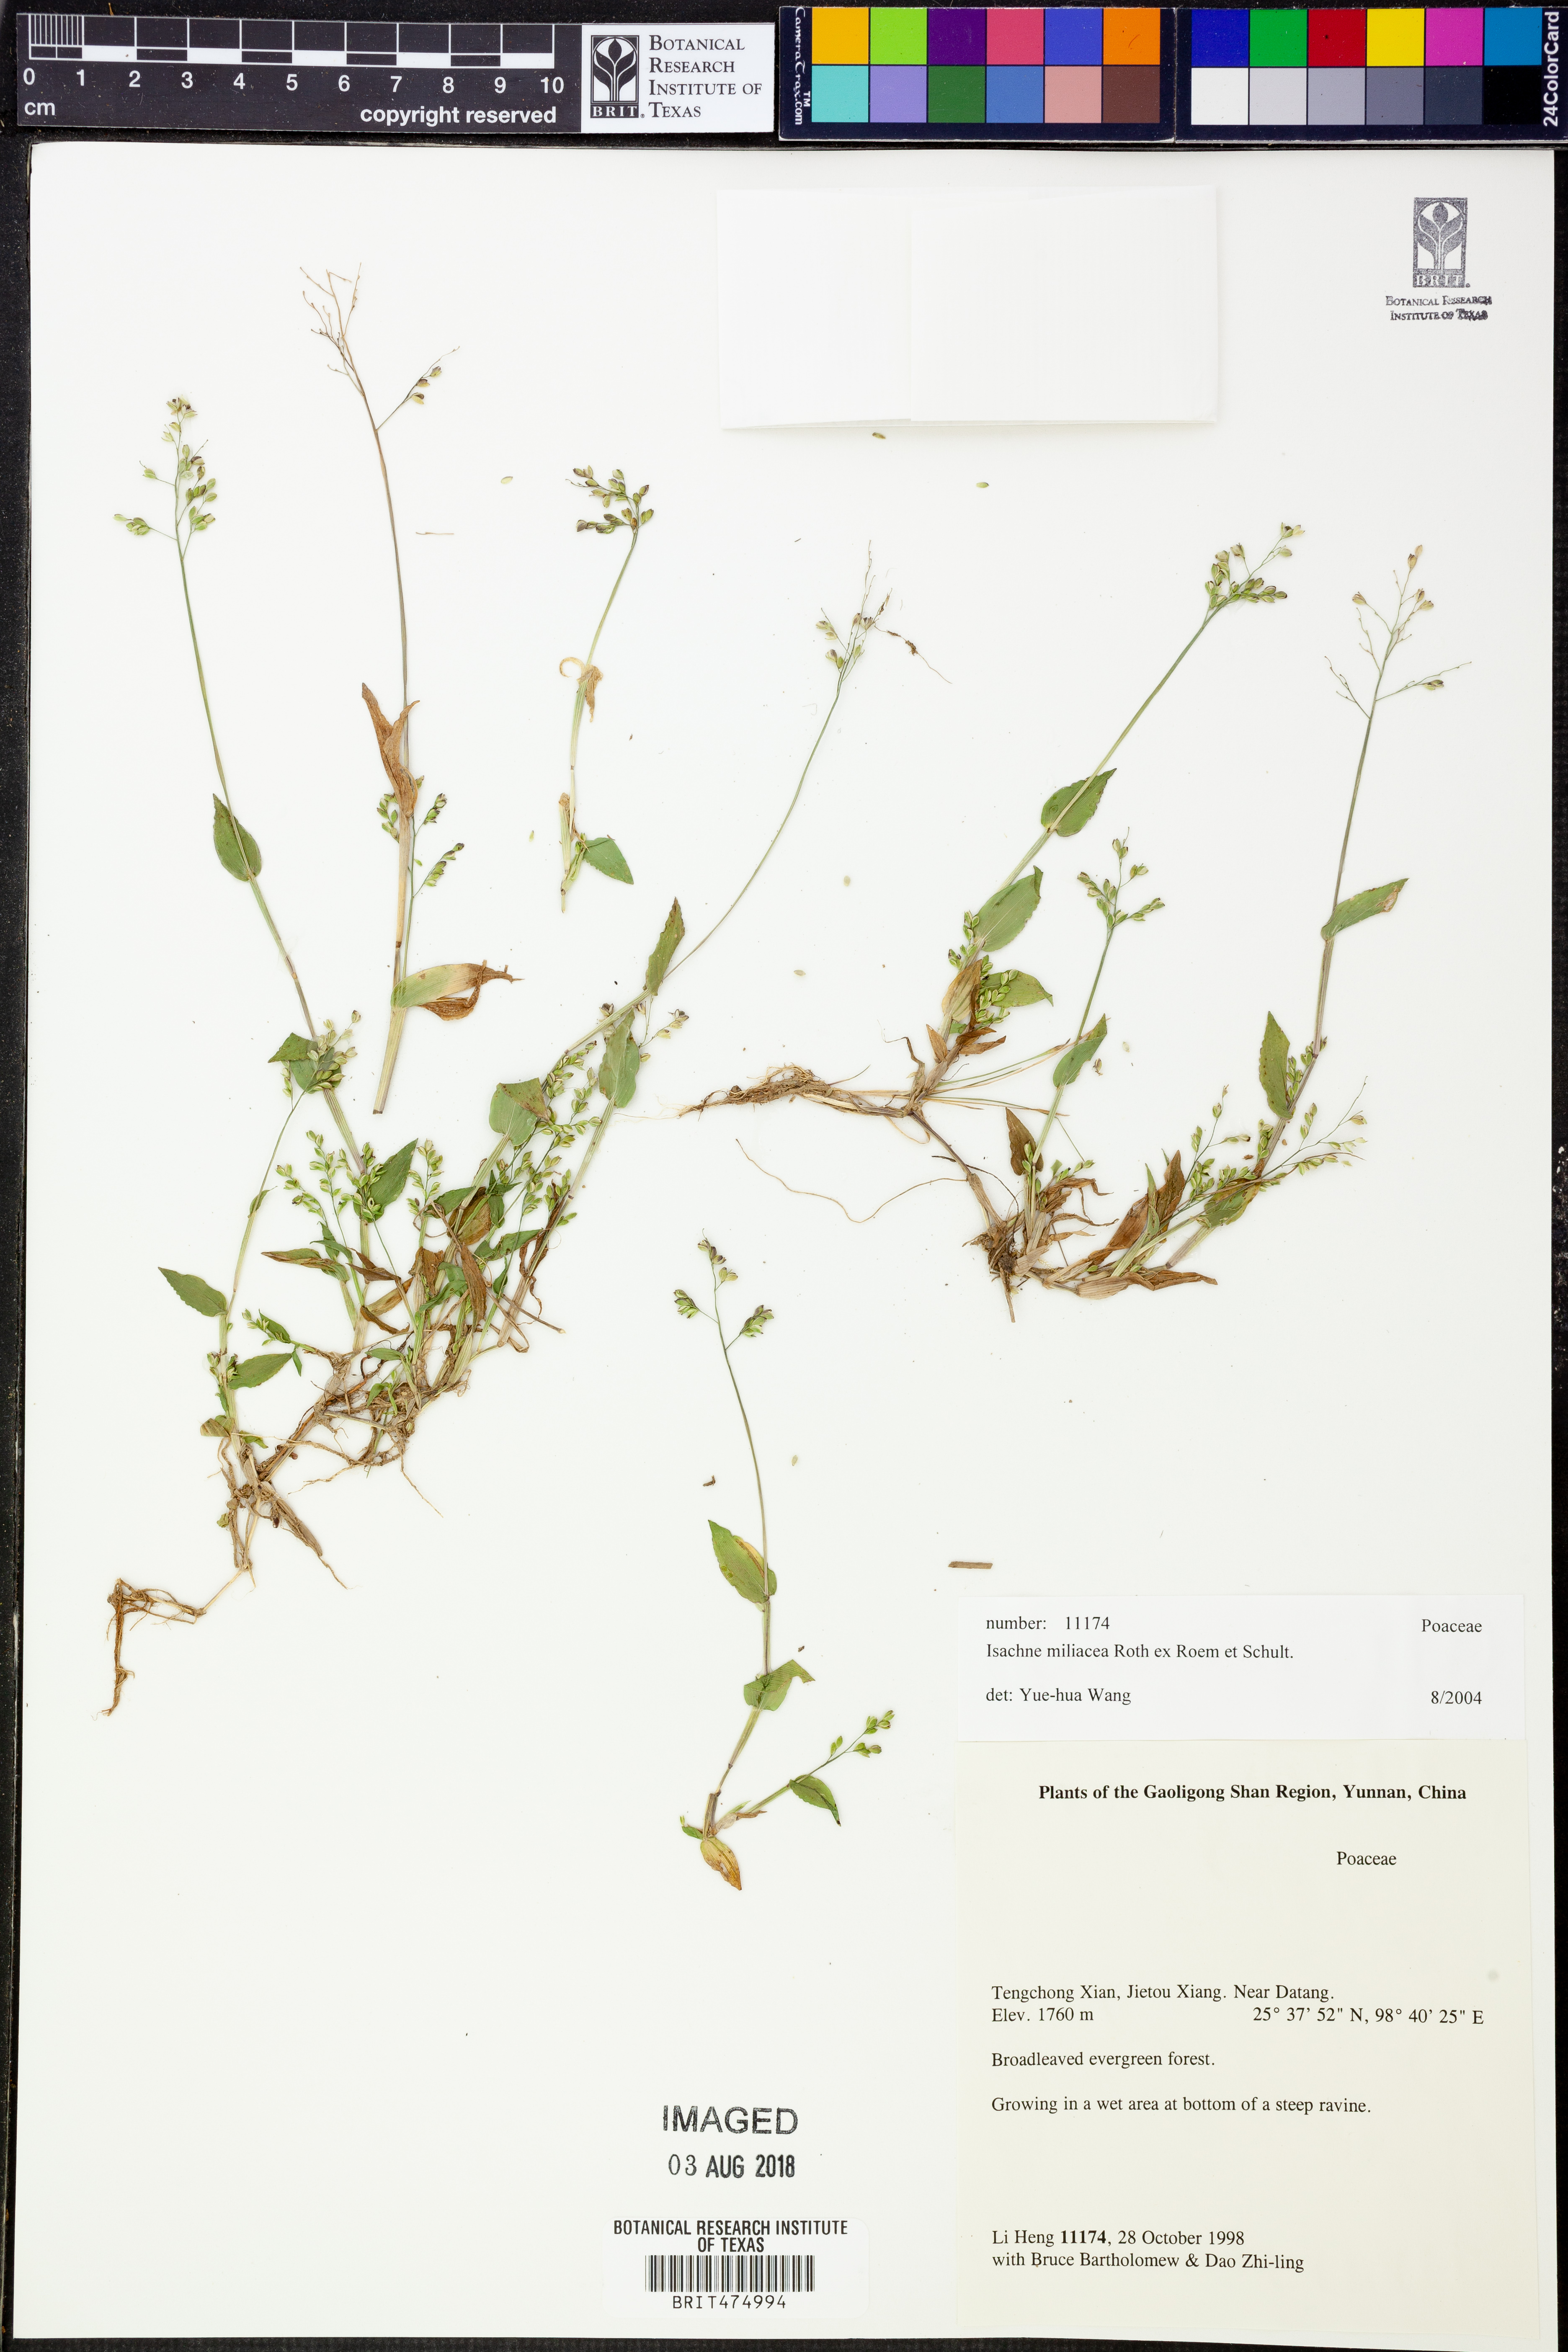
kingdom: Plantae
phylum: Tracheophyta
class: Liliopsida
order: Poales
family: Poaceae
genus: Isachne
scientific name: Isachne globosa
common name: Swamp millet
